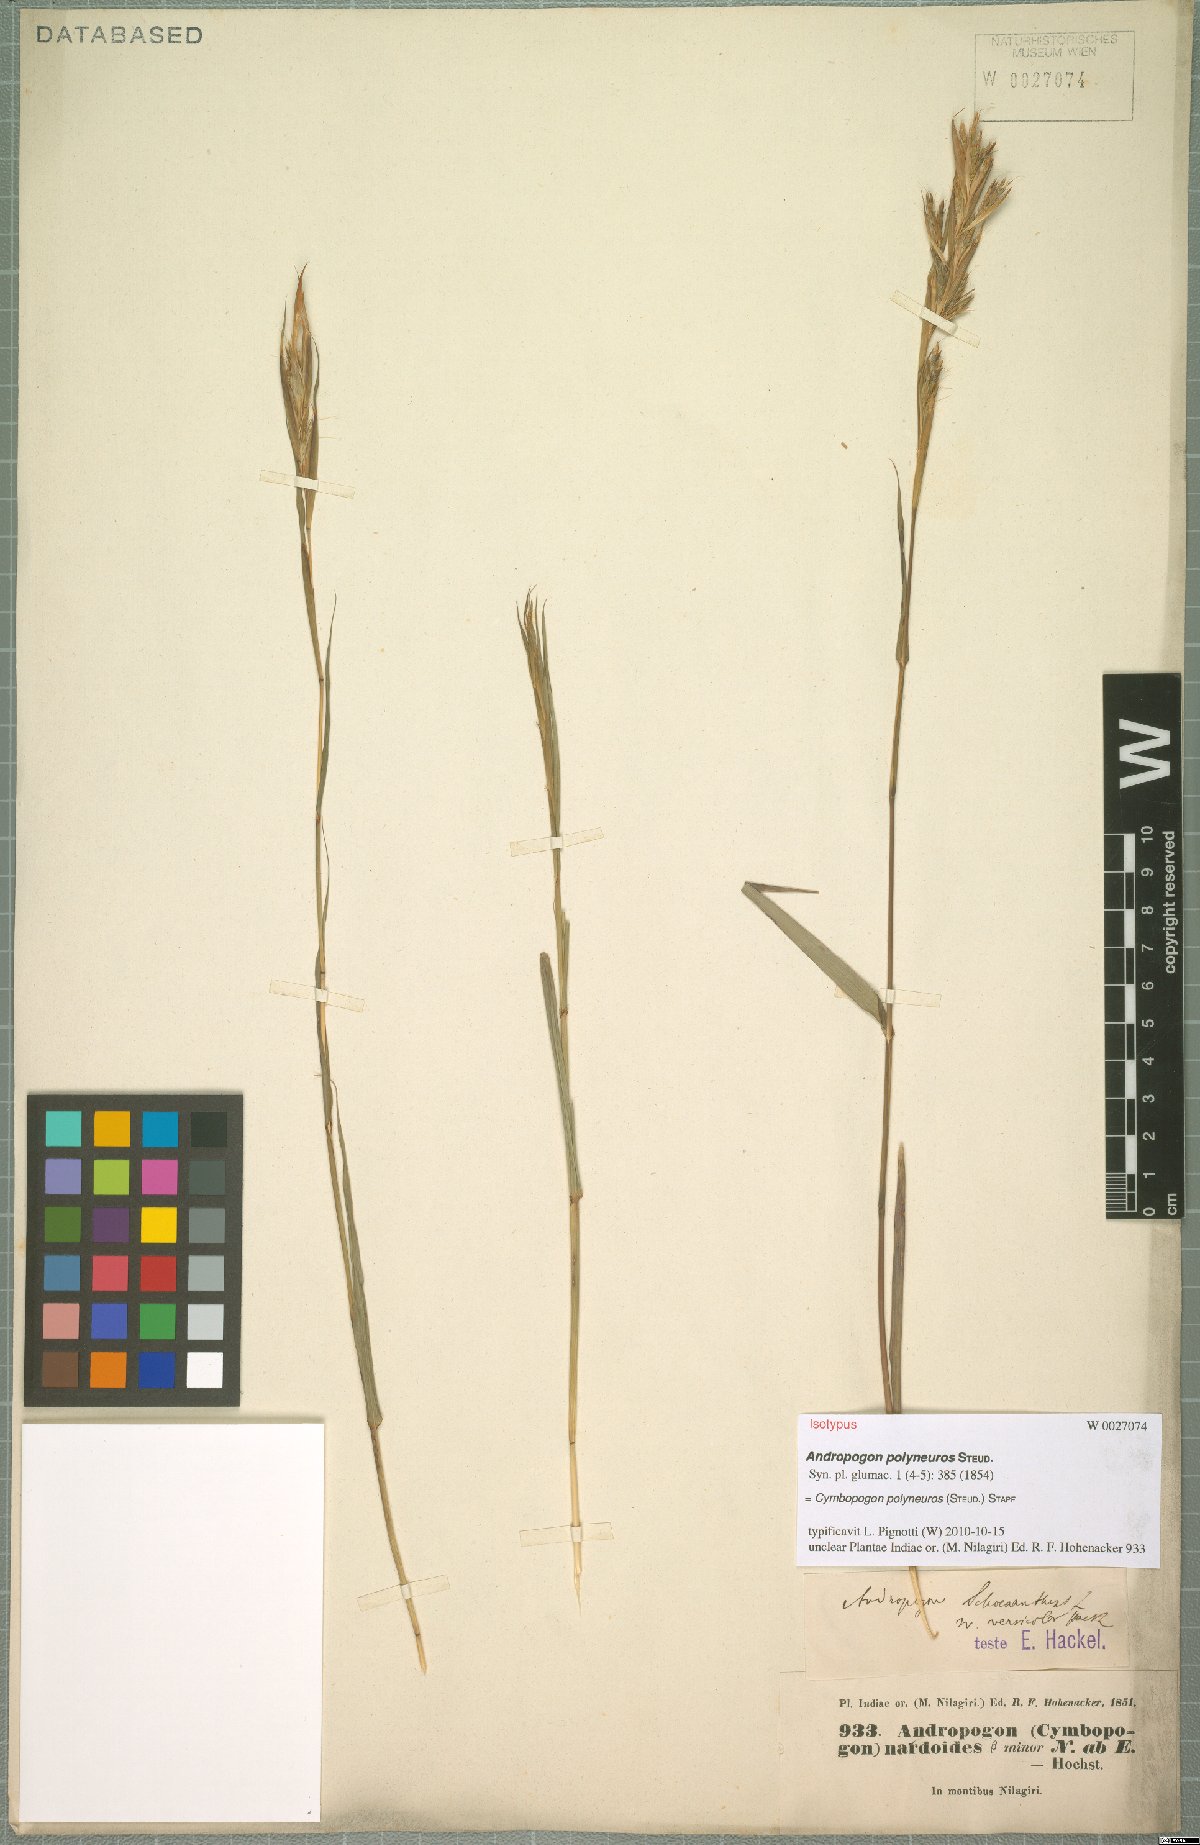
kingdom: Plantae
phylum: Tracheophyta
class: Liliopsida
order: Poales
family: Poaceae
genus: Cymbopogon
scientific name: Cymbopogon polyneuros
